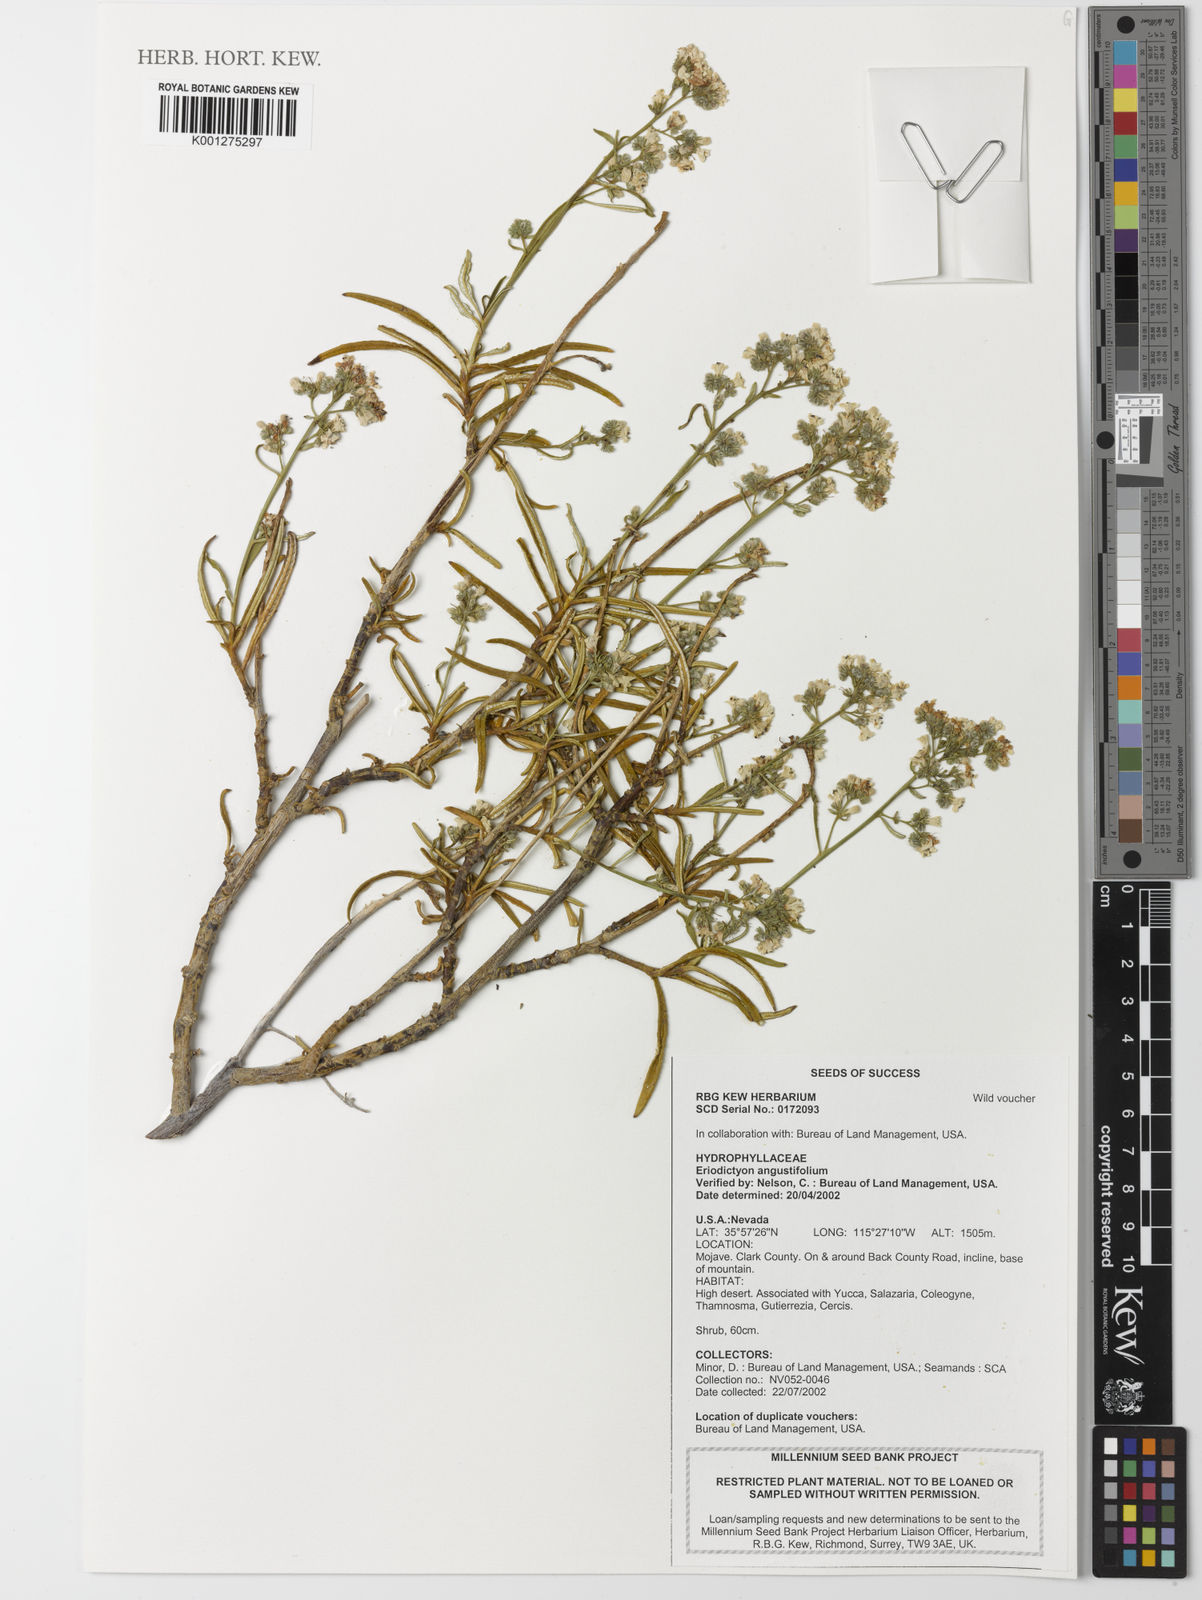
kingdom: Plantae
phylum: Tracheophyta
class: Magnoliopsida
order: Boraginales
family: Namaceae
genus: Eriodictyon
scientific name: Eriodictyon angustifolium
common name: Narrow-leaf yerba santa
